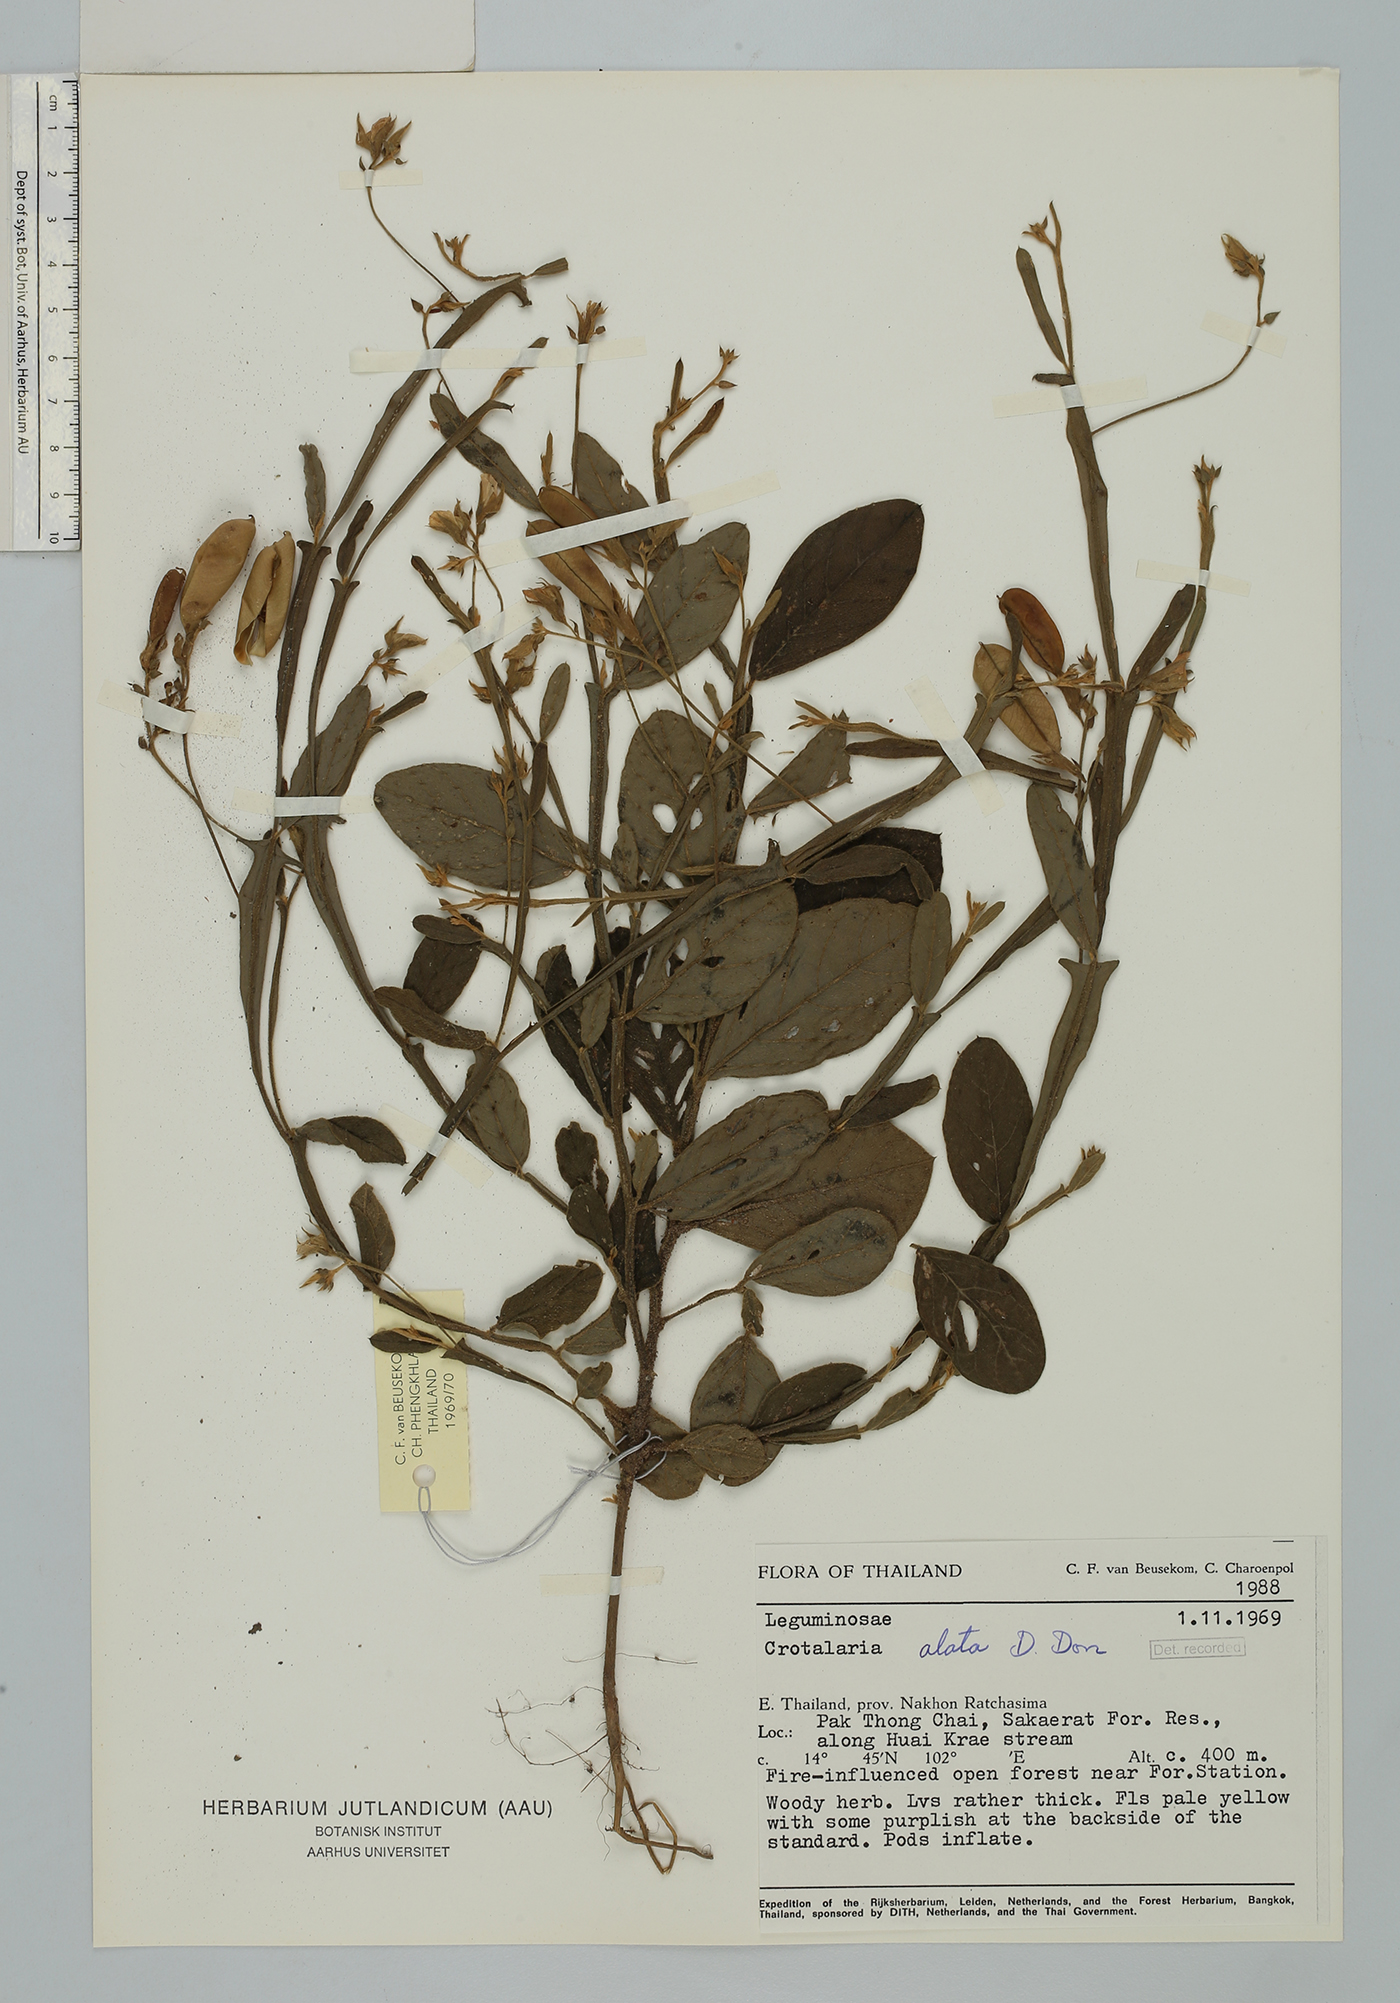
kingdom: Plantae
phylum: Tracheophyta
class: Magnoliopsida
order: Fabales
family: Fabaceae
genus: Crotalaria
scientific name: Crotalaria alata
